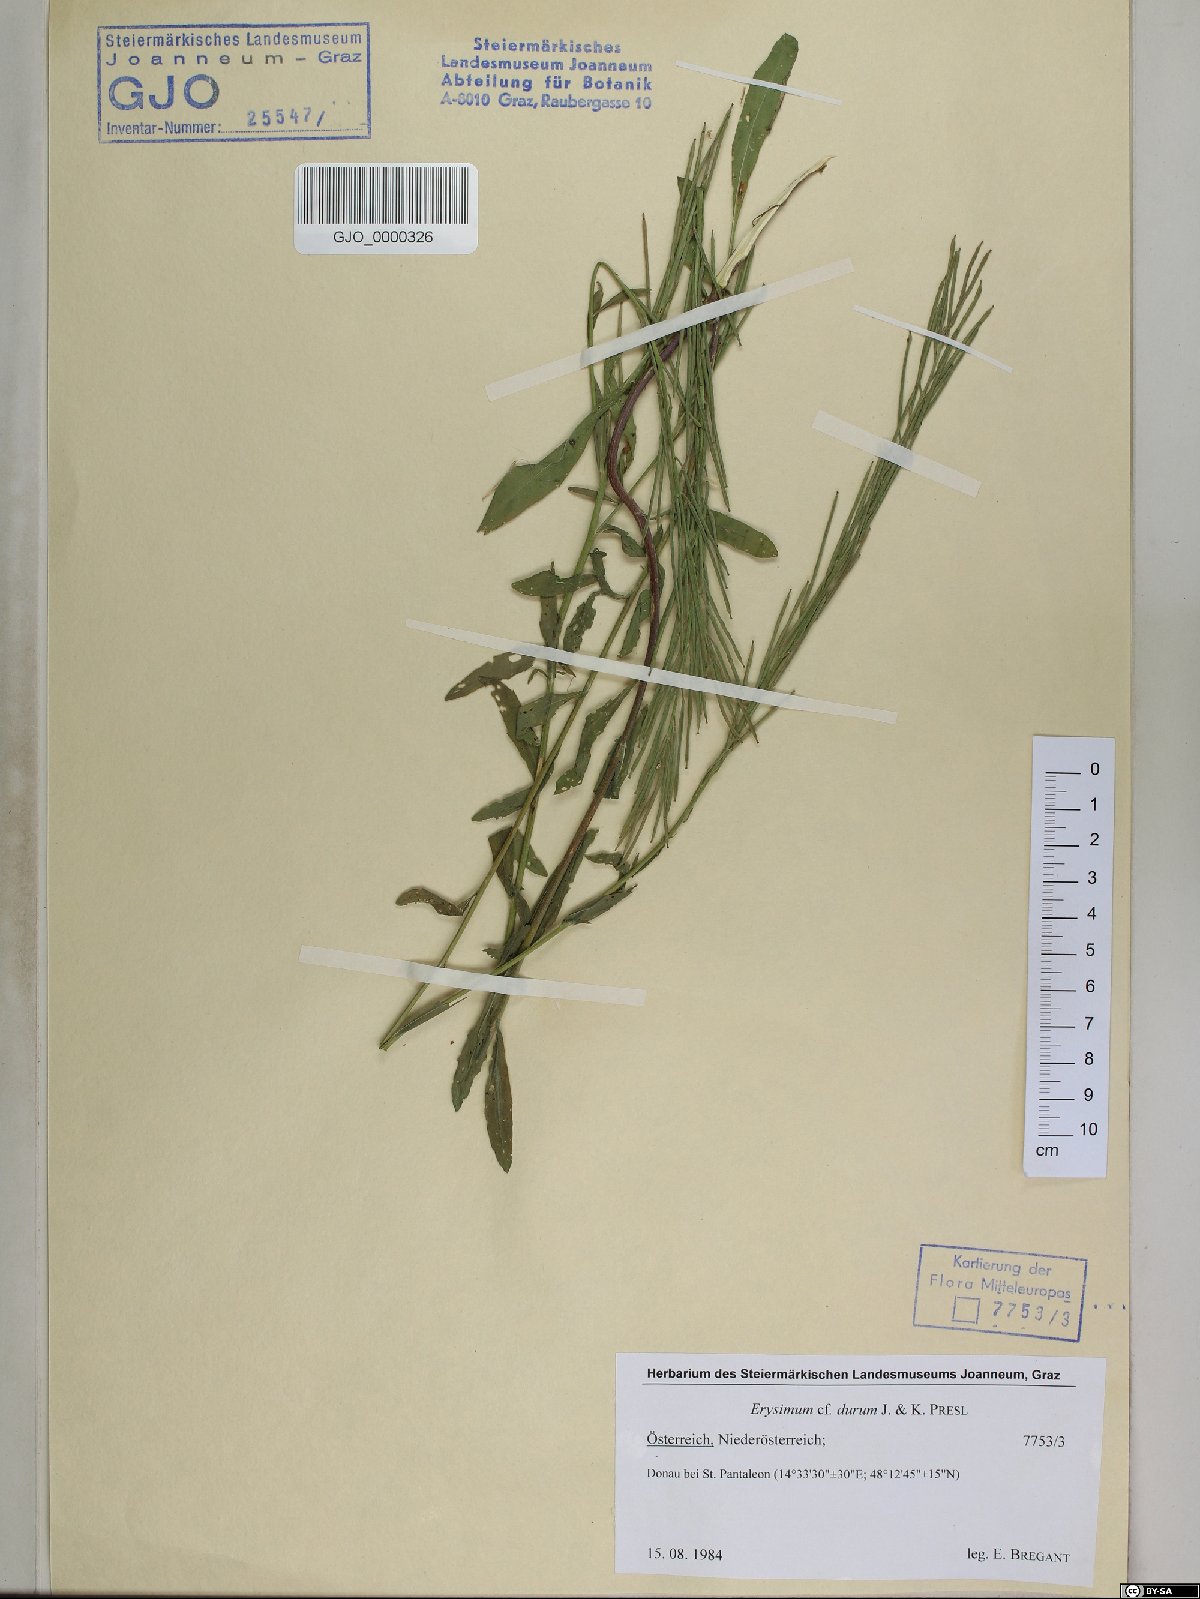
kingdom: Plantae
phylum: Tracheophyta
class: Magnoliopsida
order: Brassicales
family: Brassicaceae
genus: Erysimum
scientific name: Erysimum marschallianum
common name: Hard wallflower
